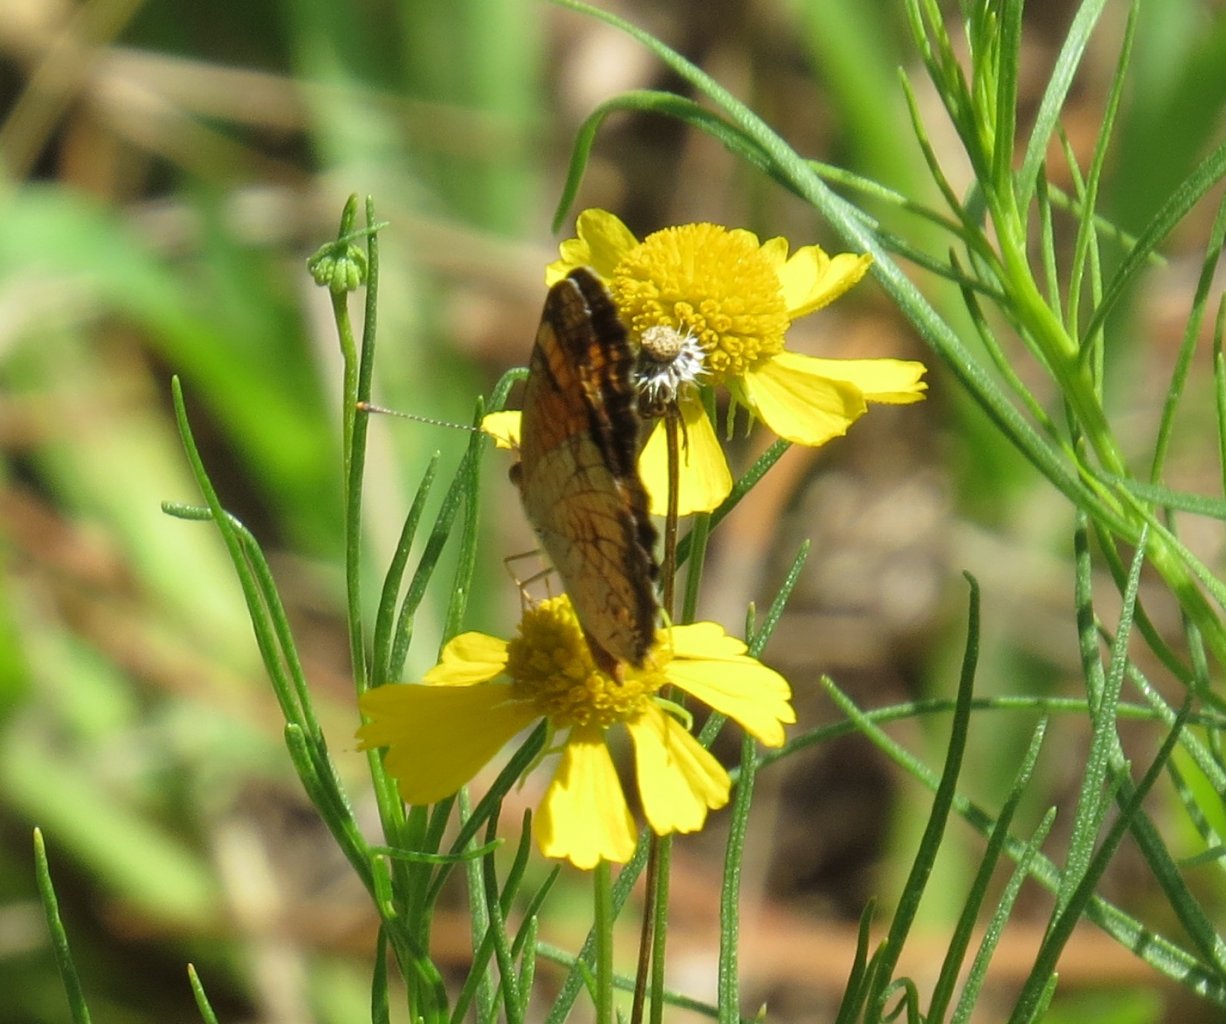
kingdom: Animalia
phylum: Arthropoda
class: Insecta
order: Lepidoptera
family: Nymphalidae
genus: Phyciodes
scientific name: Phyciodes tharos
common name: Pearl Crescent
